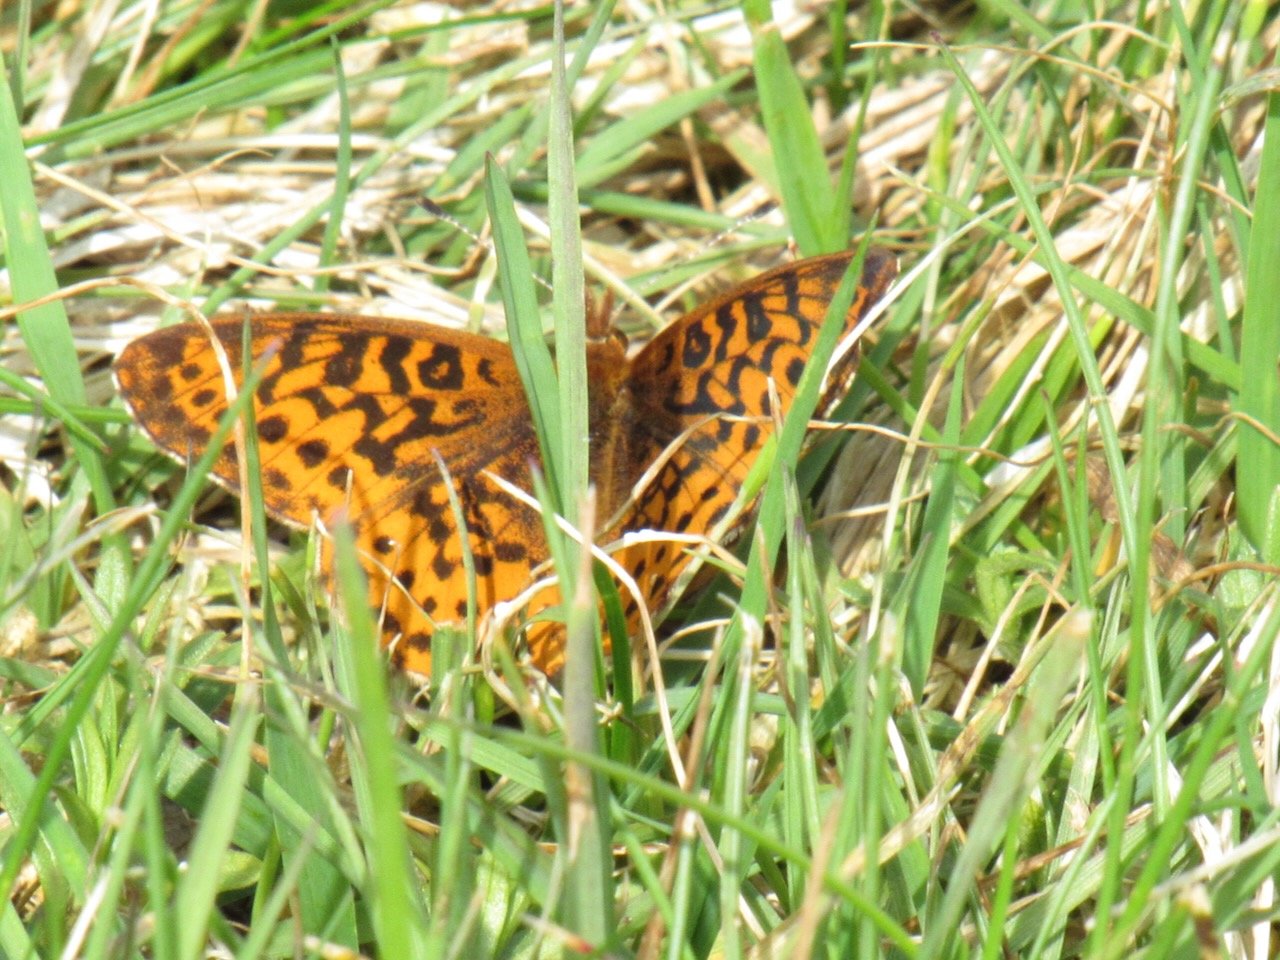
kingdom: Animalia
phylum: Arthropoda
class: Insecta
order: Lepidoptera
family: Nymphalidae
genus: Clossiana
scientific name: Clossiana toddi
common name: Meadow Fritillary
